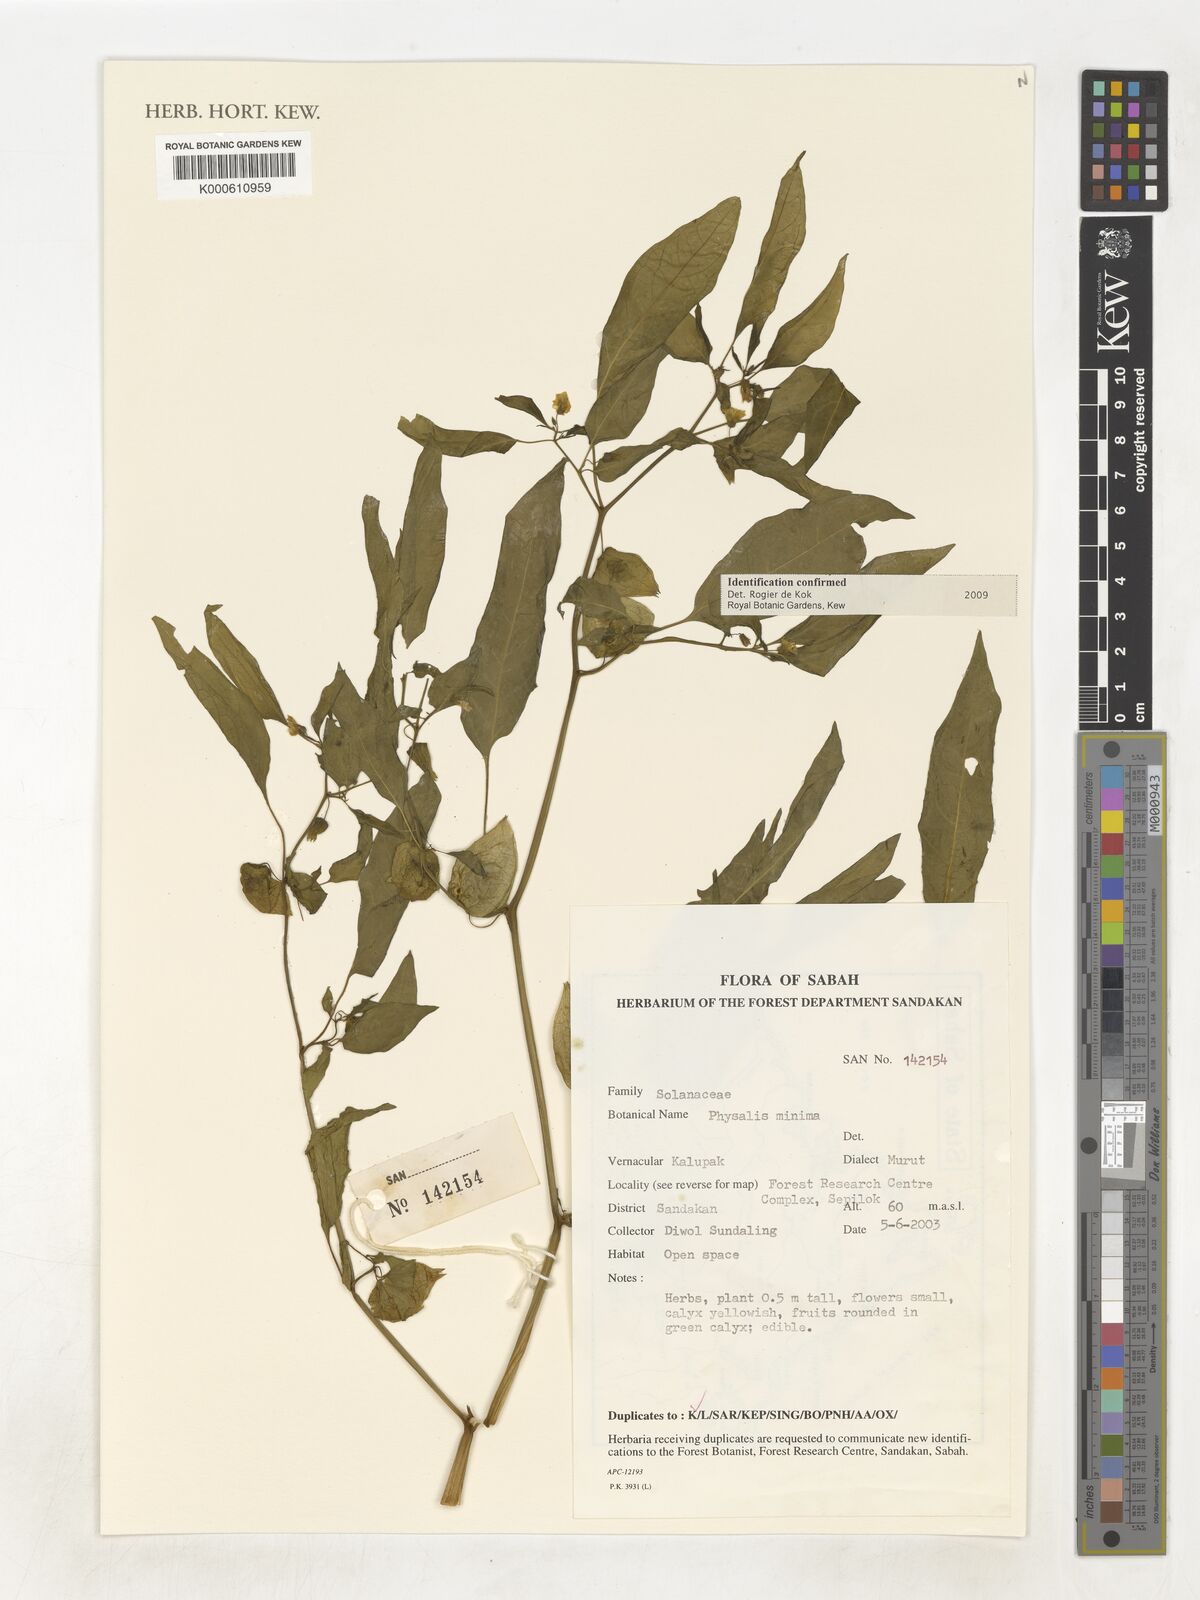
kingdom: Plantae
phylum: Tracheophyta
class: Magnoliopsida
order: Solanales
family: Solanaceae
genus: Physalis
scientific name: Physalis angulata
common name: Angular winter-cherry
